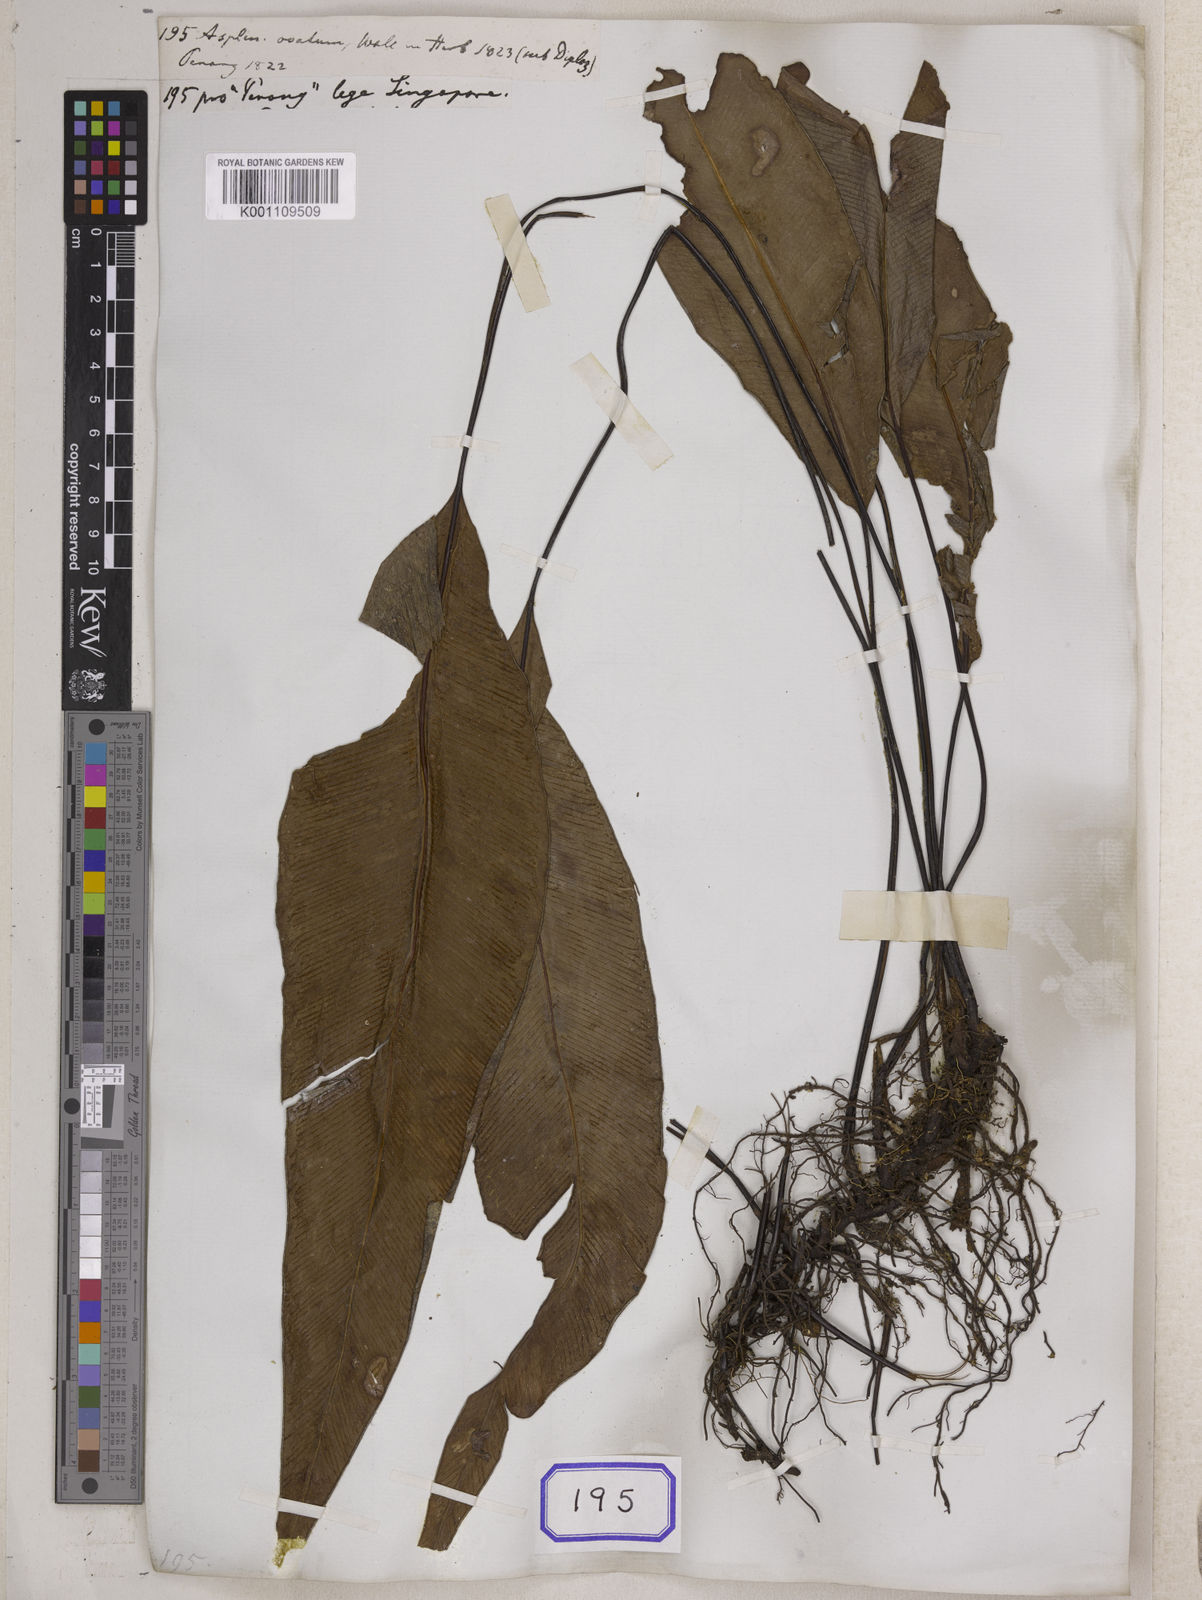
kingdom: Plantae
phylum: Tracheophyta
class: Polypodiopsida
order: Polypodiales
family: Pteridaceae
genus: Syngramma
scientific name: Syngramma wallichii
